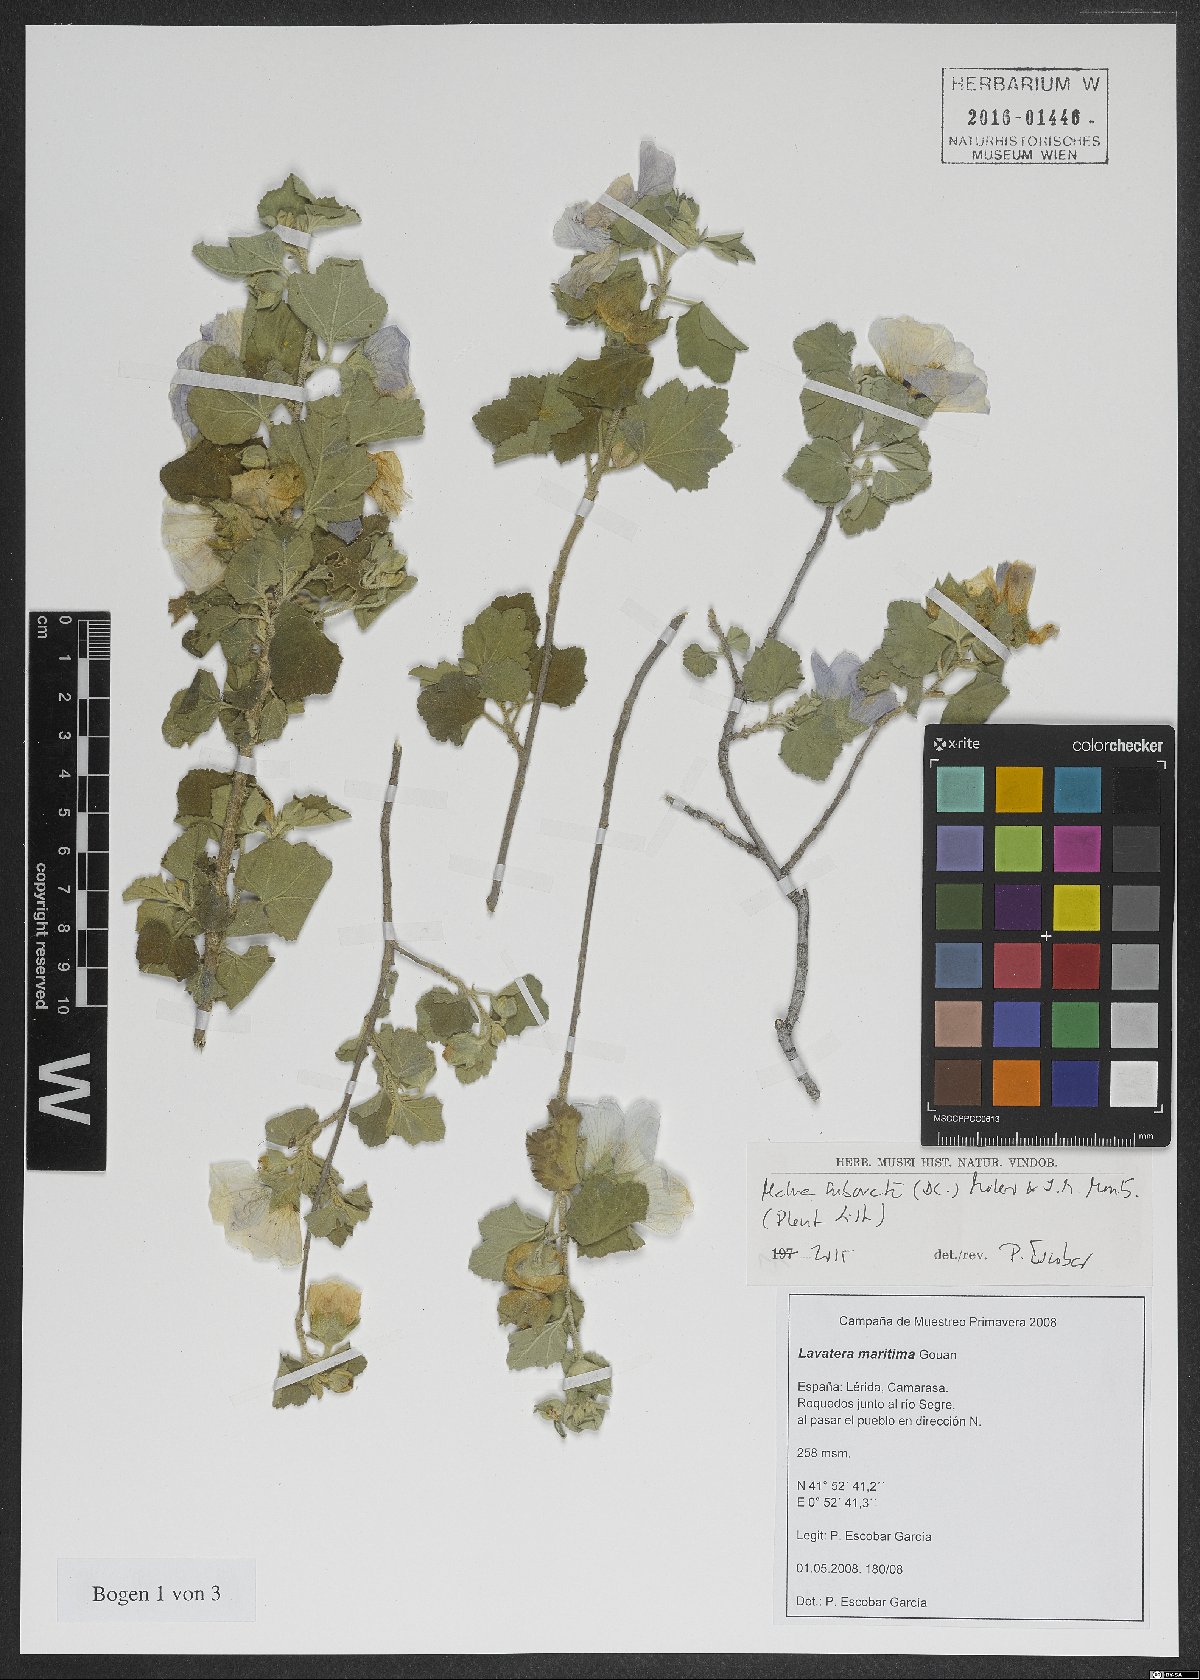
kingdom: Plantae
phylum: Tracheophyta
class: Magnoliopsida
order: Malvales
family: Malvaceae
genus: Malva
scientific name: Malva subovata
